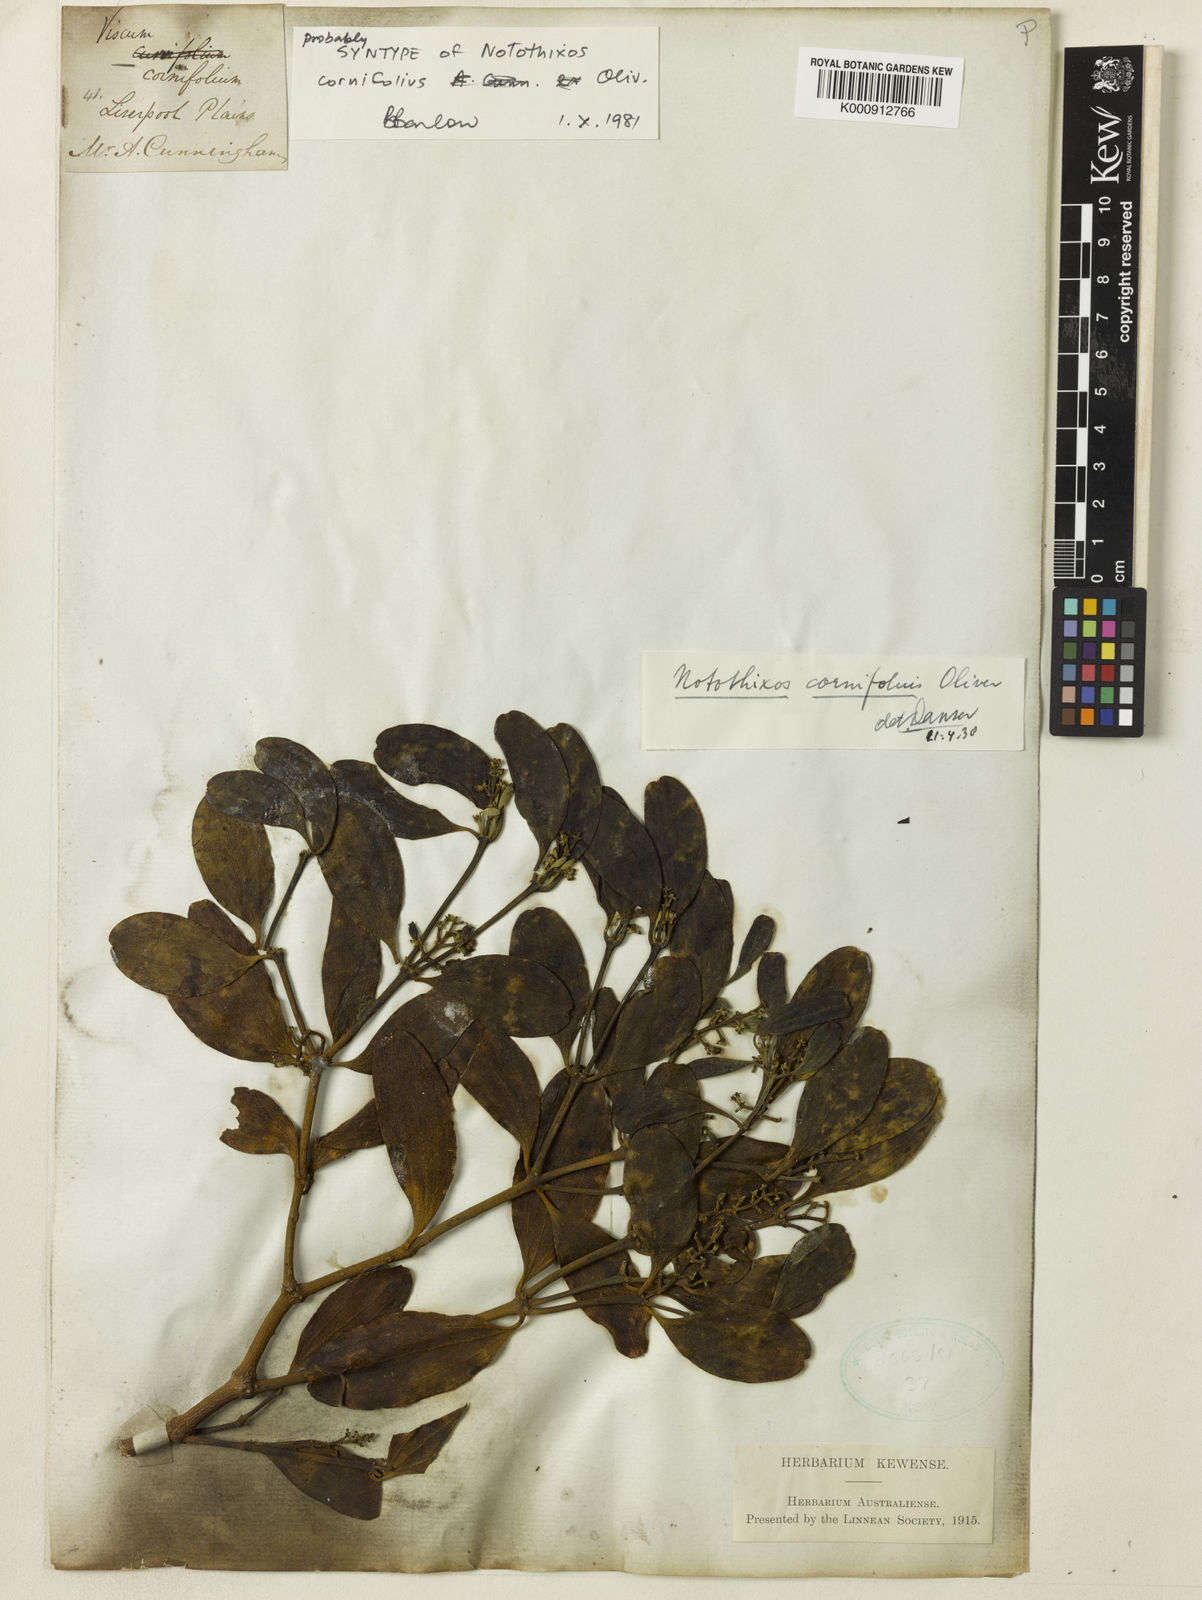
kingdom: Plantae
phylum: Tracheophyta
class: Magnoliopsida
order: Santalales
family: Viscaceae
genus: Notothixos
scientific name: Notothixos cornifolius
